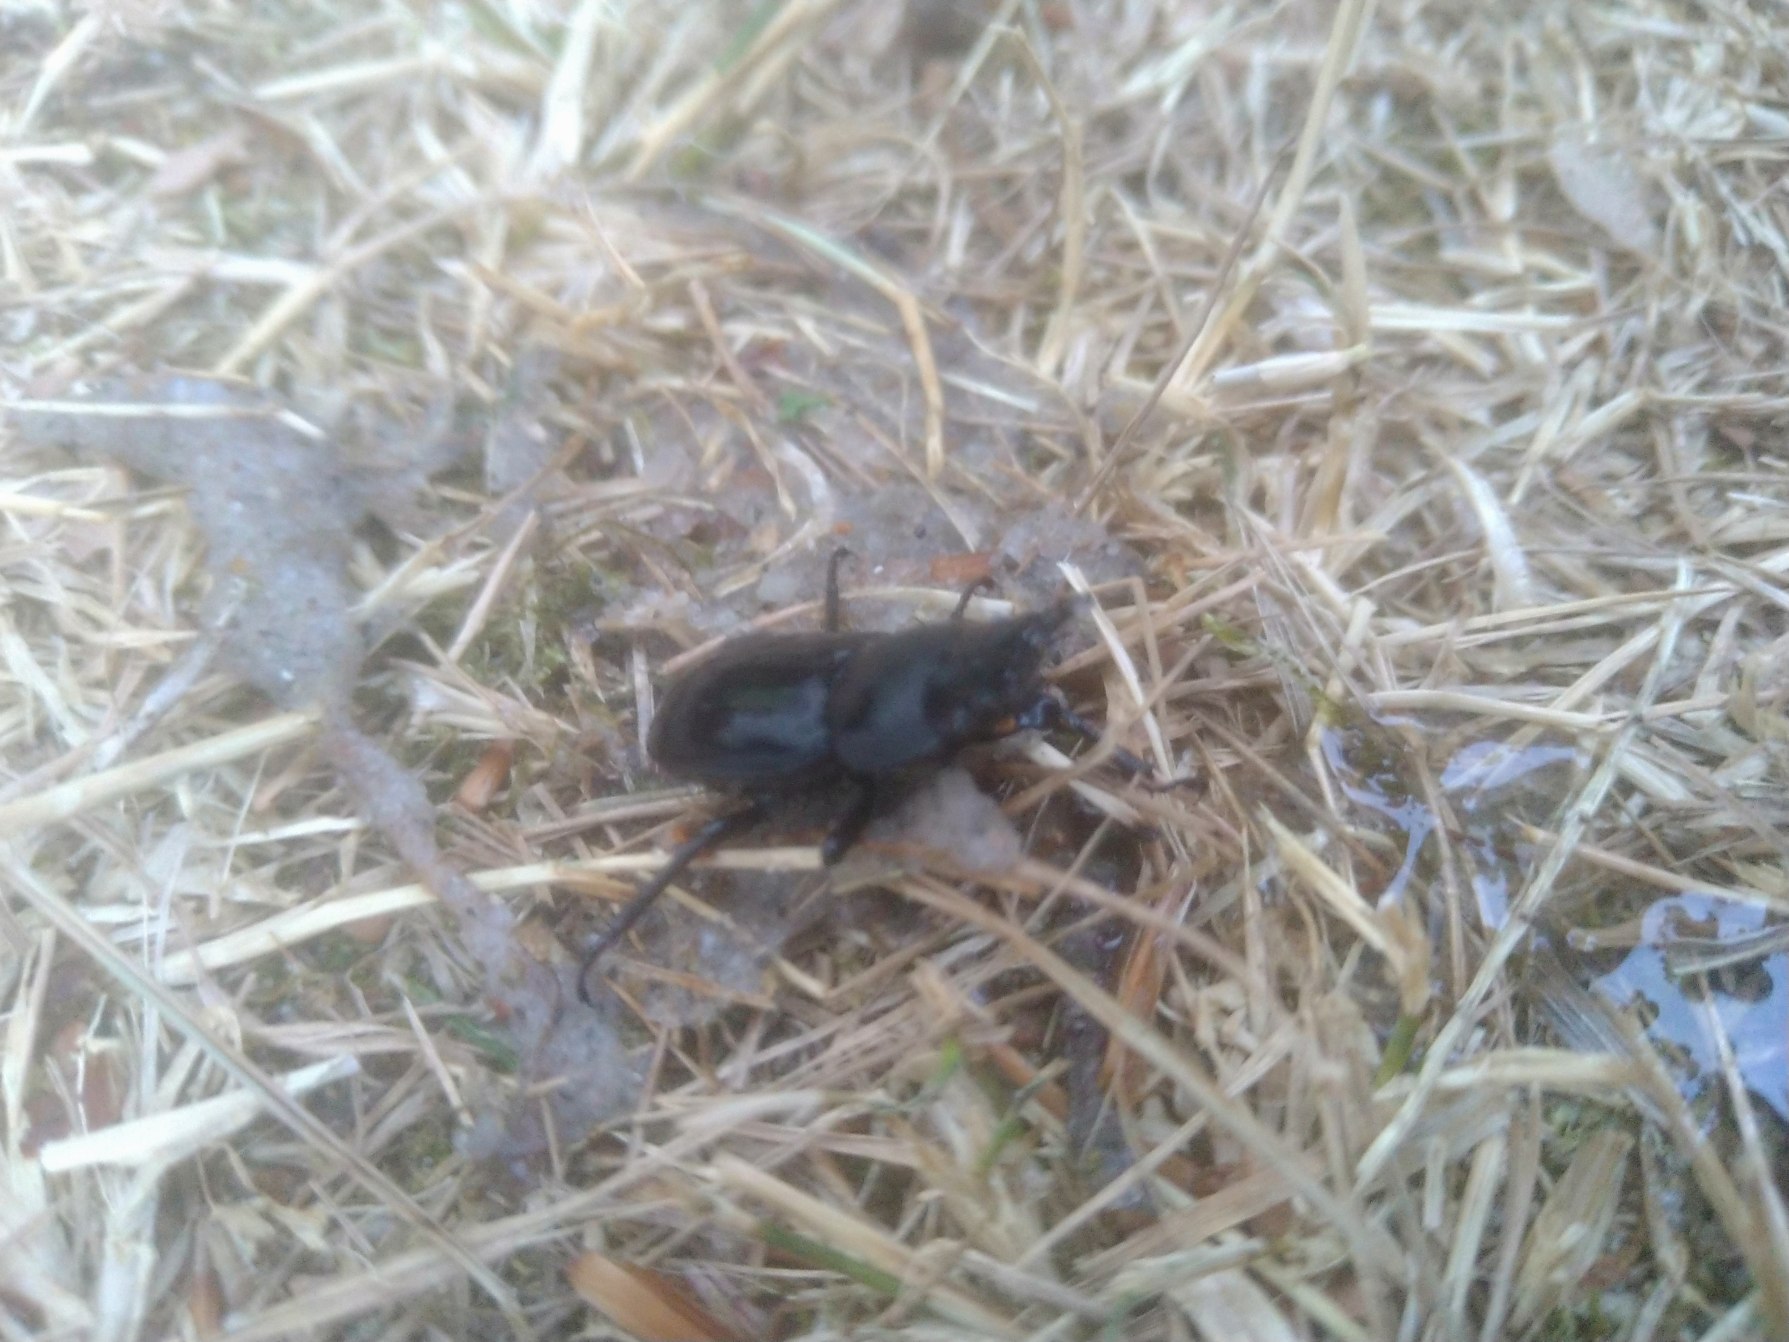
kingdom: Animalia
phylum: Arthropoda
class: Insecta
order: Coleoptera
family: Lucanidae
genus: Dorcus
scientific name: Dorcus parallelipipedus
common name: Bøghjort
